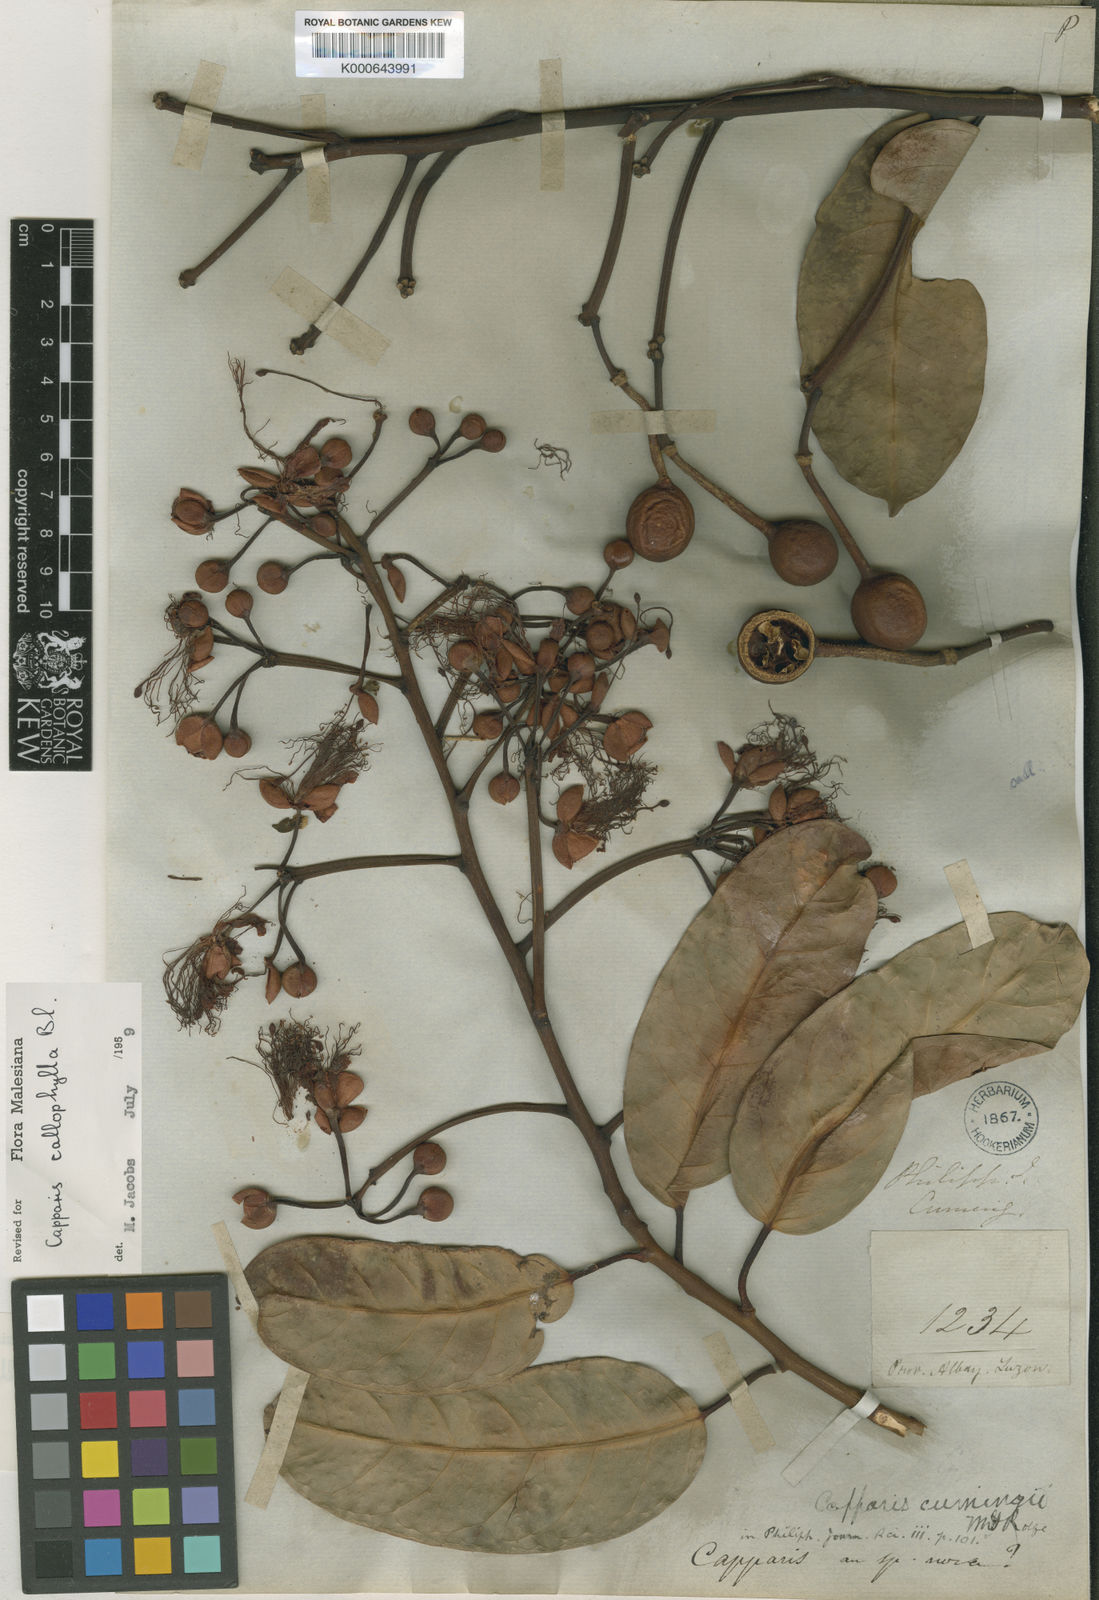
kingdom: Plantae
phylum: Tracheophyta
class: Magnoliopsida
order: Brassicales
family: Capparaceae
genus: Capparis
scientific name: Capparis callophylla
